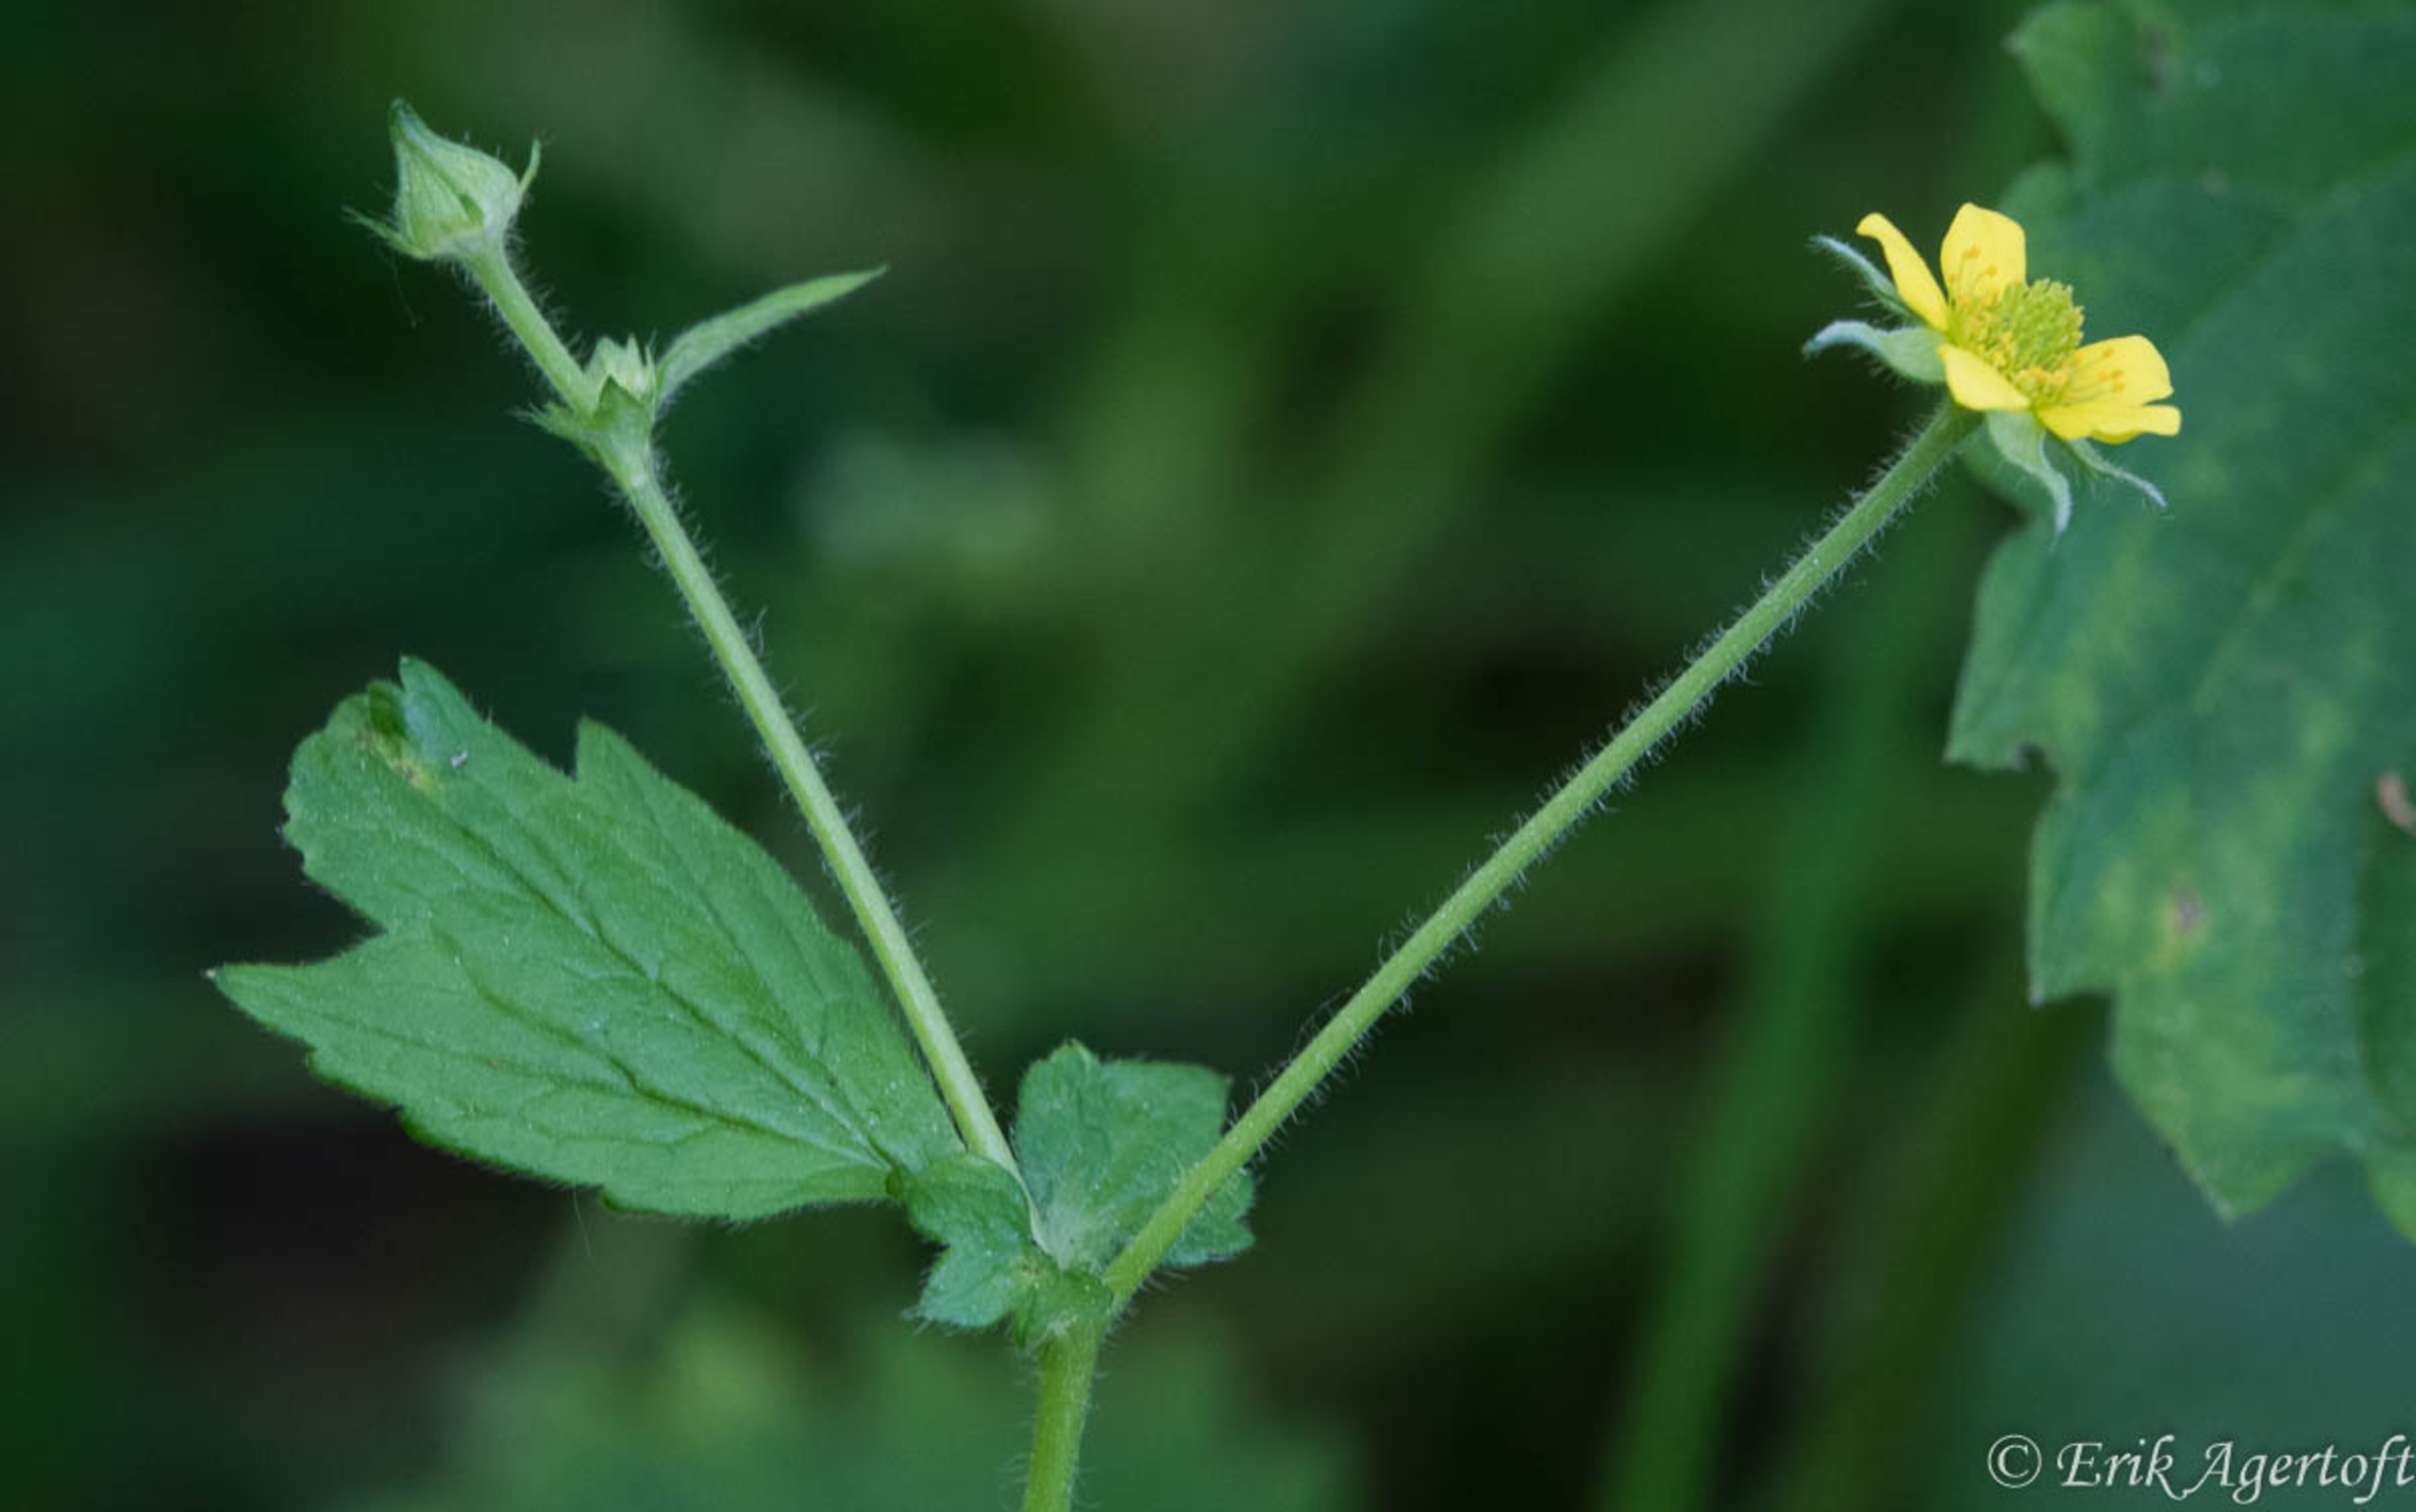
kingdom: Plantae
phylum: Tracheophyta
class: Magnoliopsida
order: Rosales
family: Rosaceae
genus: Geum
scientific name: Geum urbanum
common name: Feber-nellikerod
